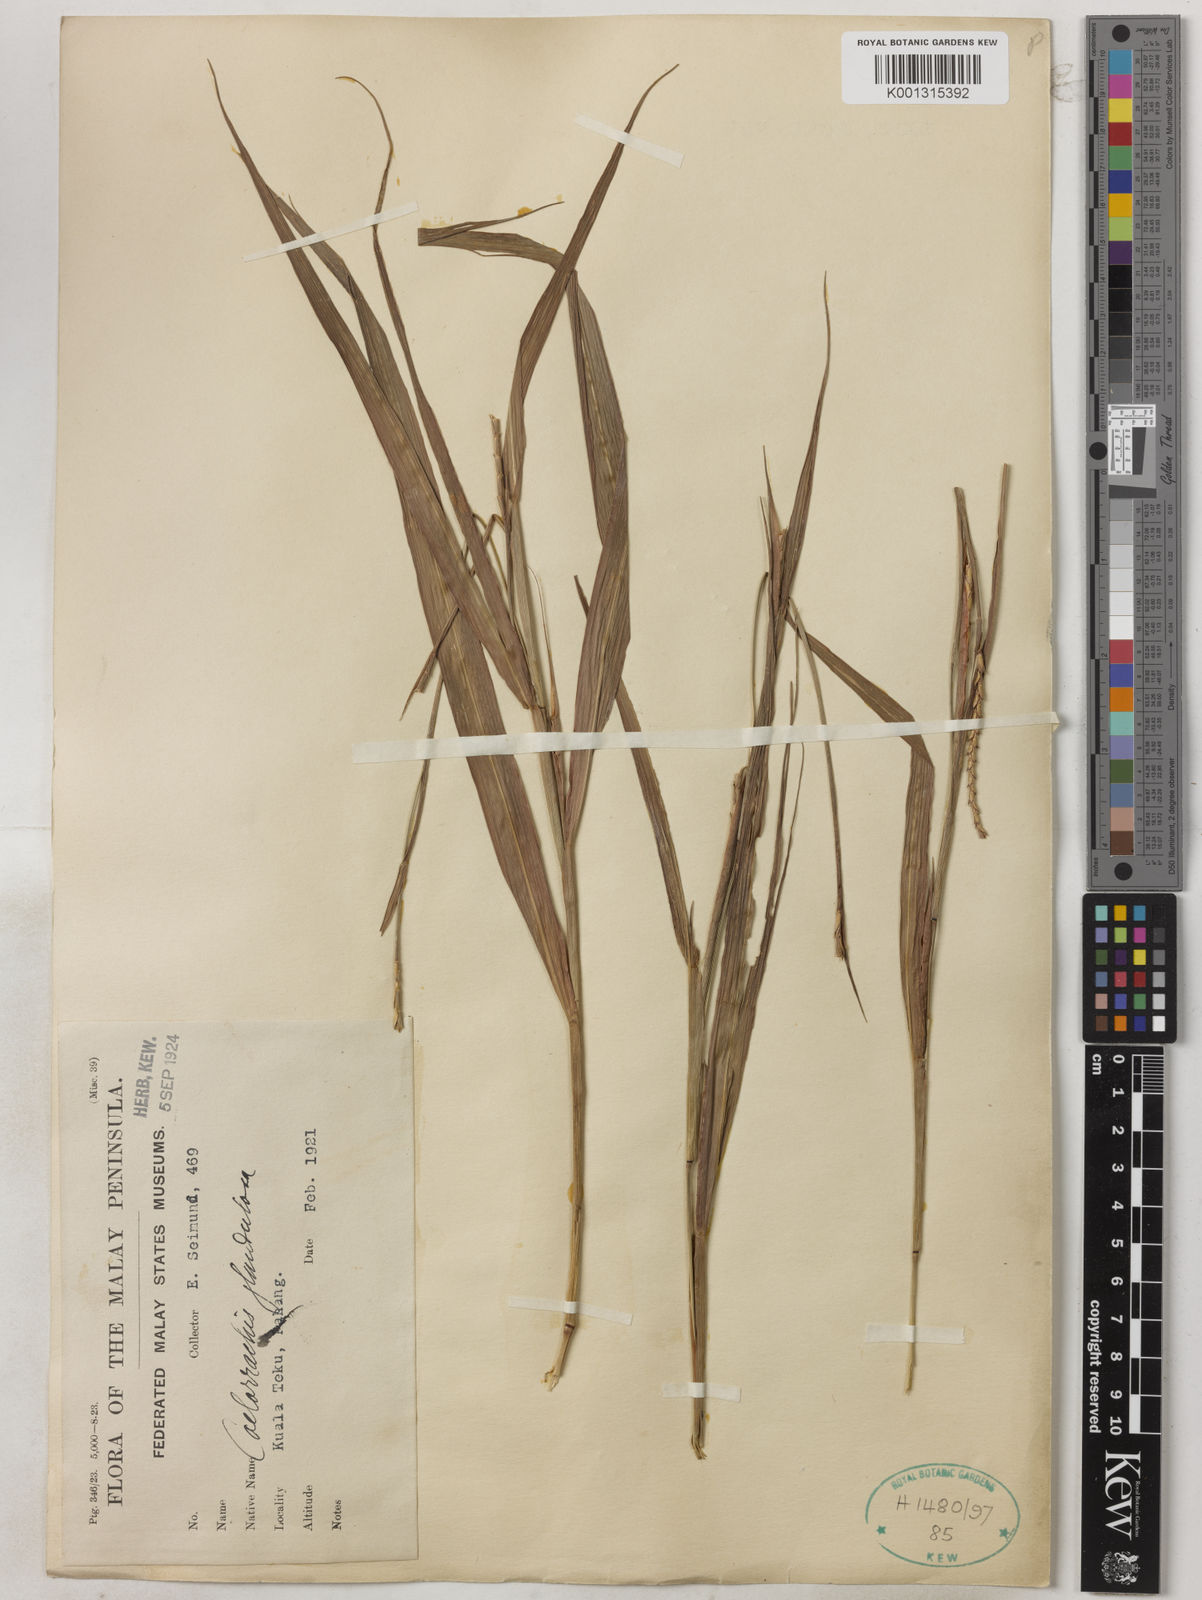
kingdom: Plantae
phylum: Tracheophyta
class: Liliopsida
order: Poales
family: Poaceae
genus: Rottboellia
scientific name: Rottboellia glandulosa
